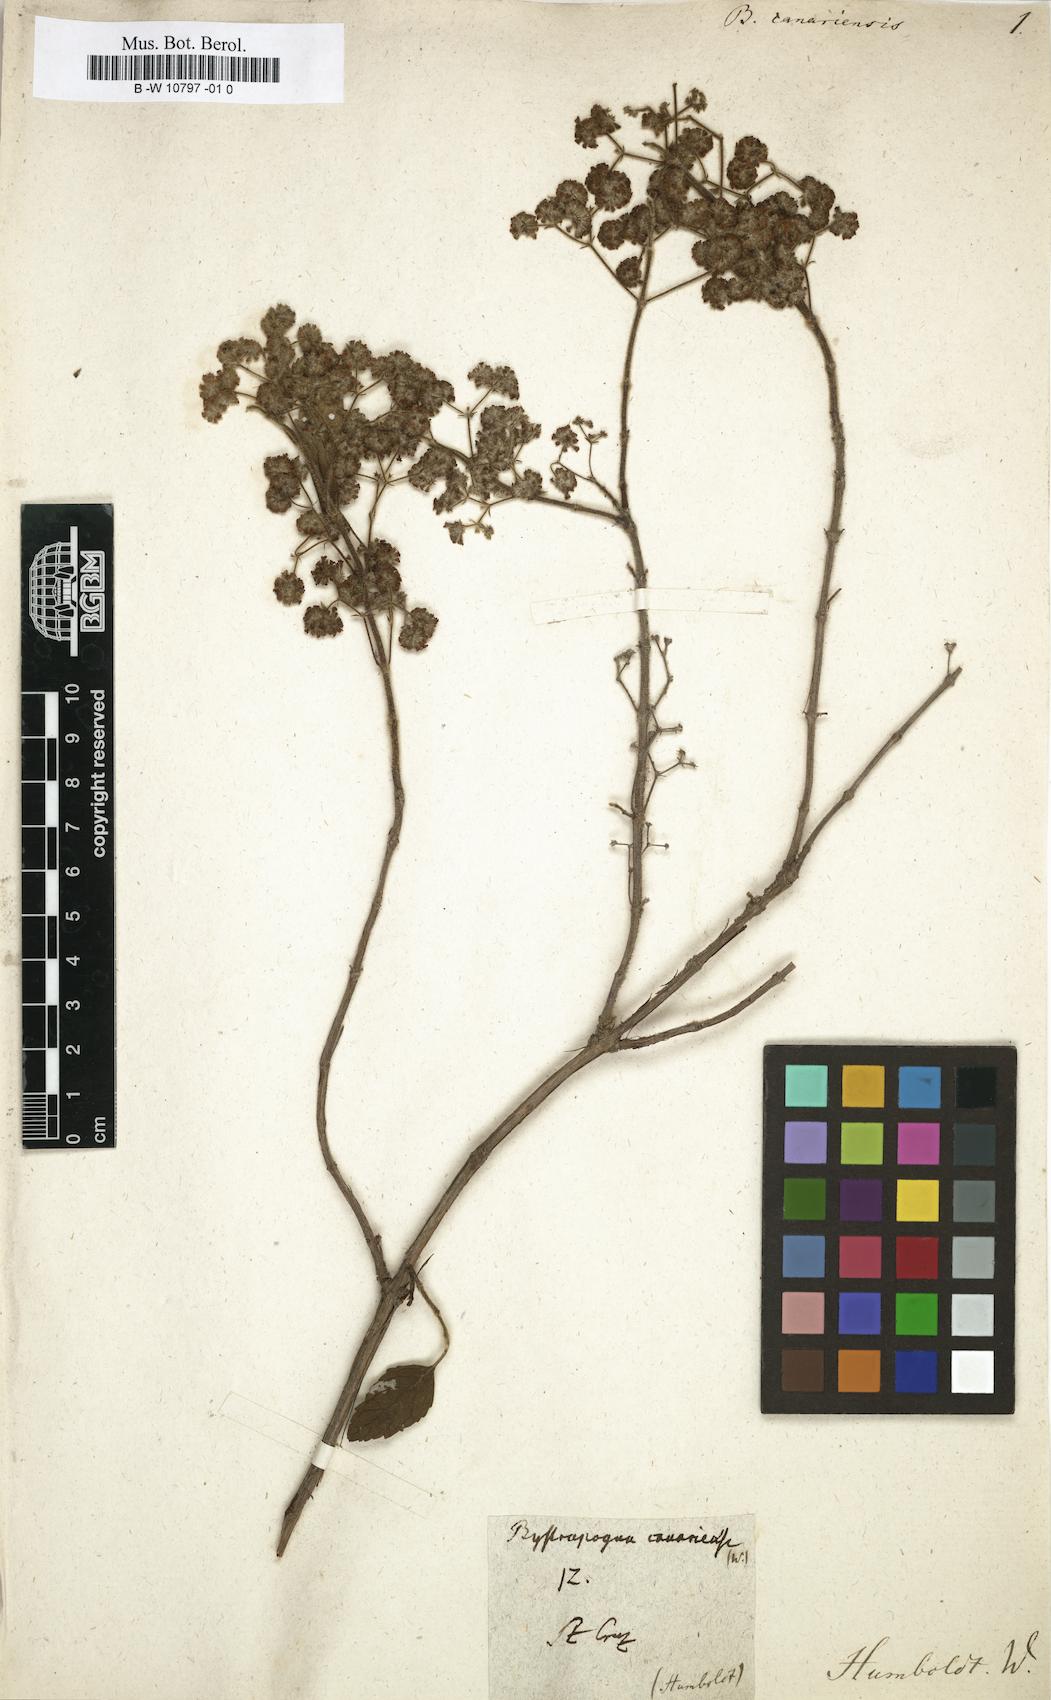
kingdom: Plantae
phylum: Tracheophyta
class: Magnoliopsida
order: Lamiales
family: Lamiaceae
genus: Bystropogon
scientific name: Bystropogon canariense
